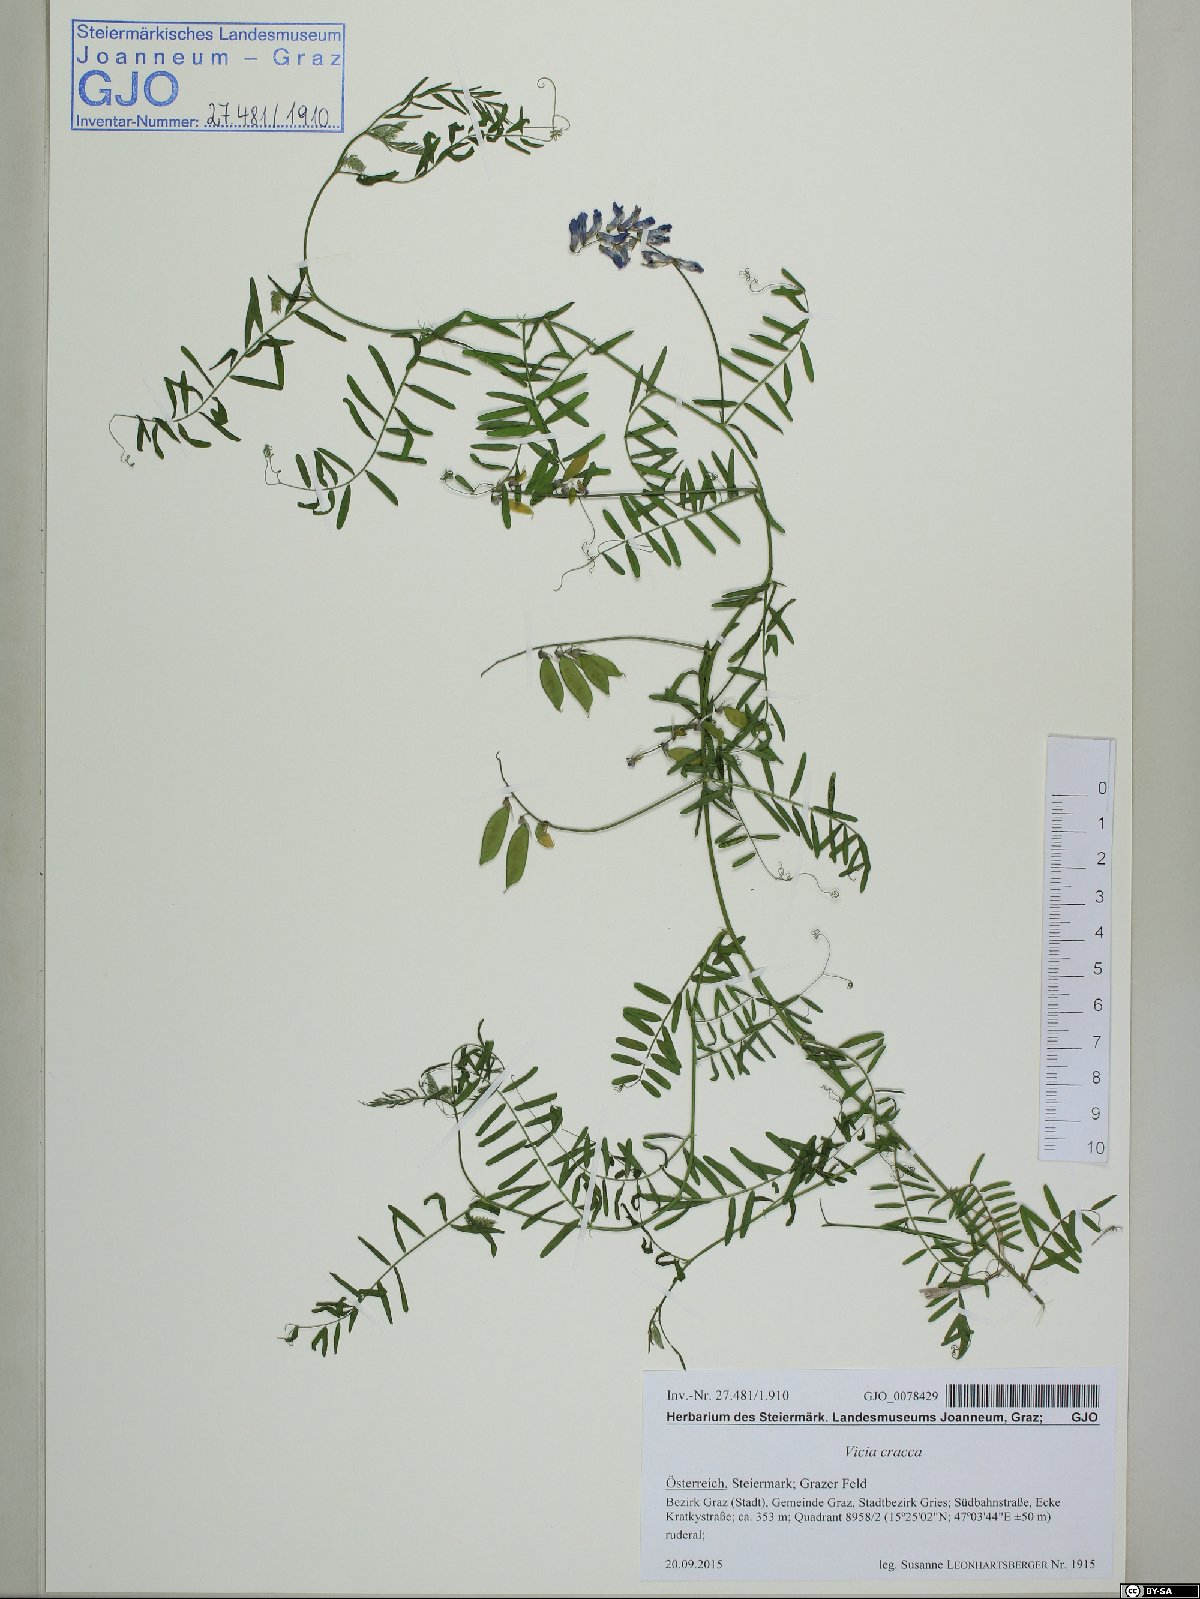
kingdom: Plantae
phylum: Tracheophyta
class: Magnoliopsida
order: Fabales
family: Fabaceae
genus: Vicia
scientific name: Vicia cracca
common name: Bird vetch
